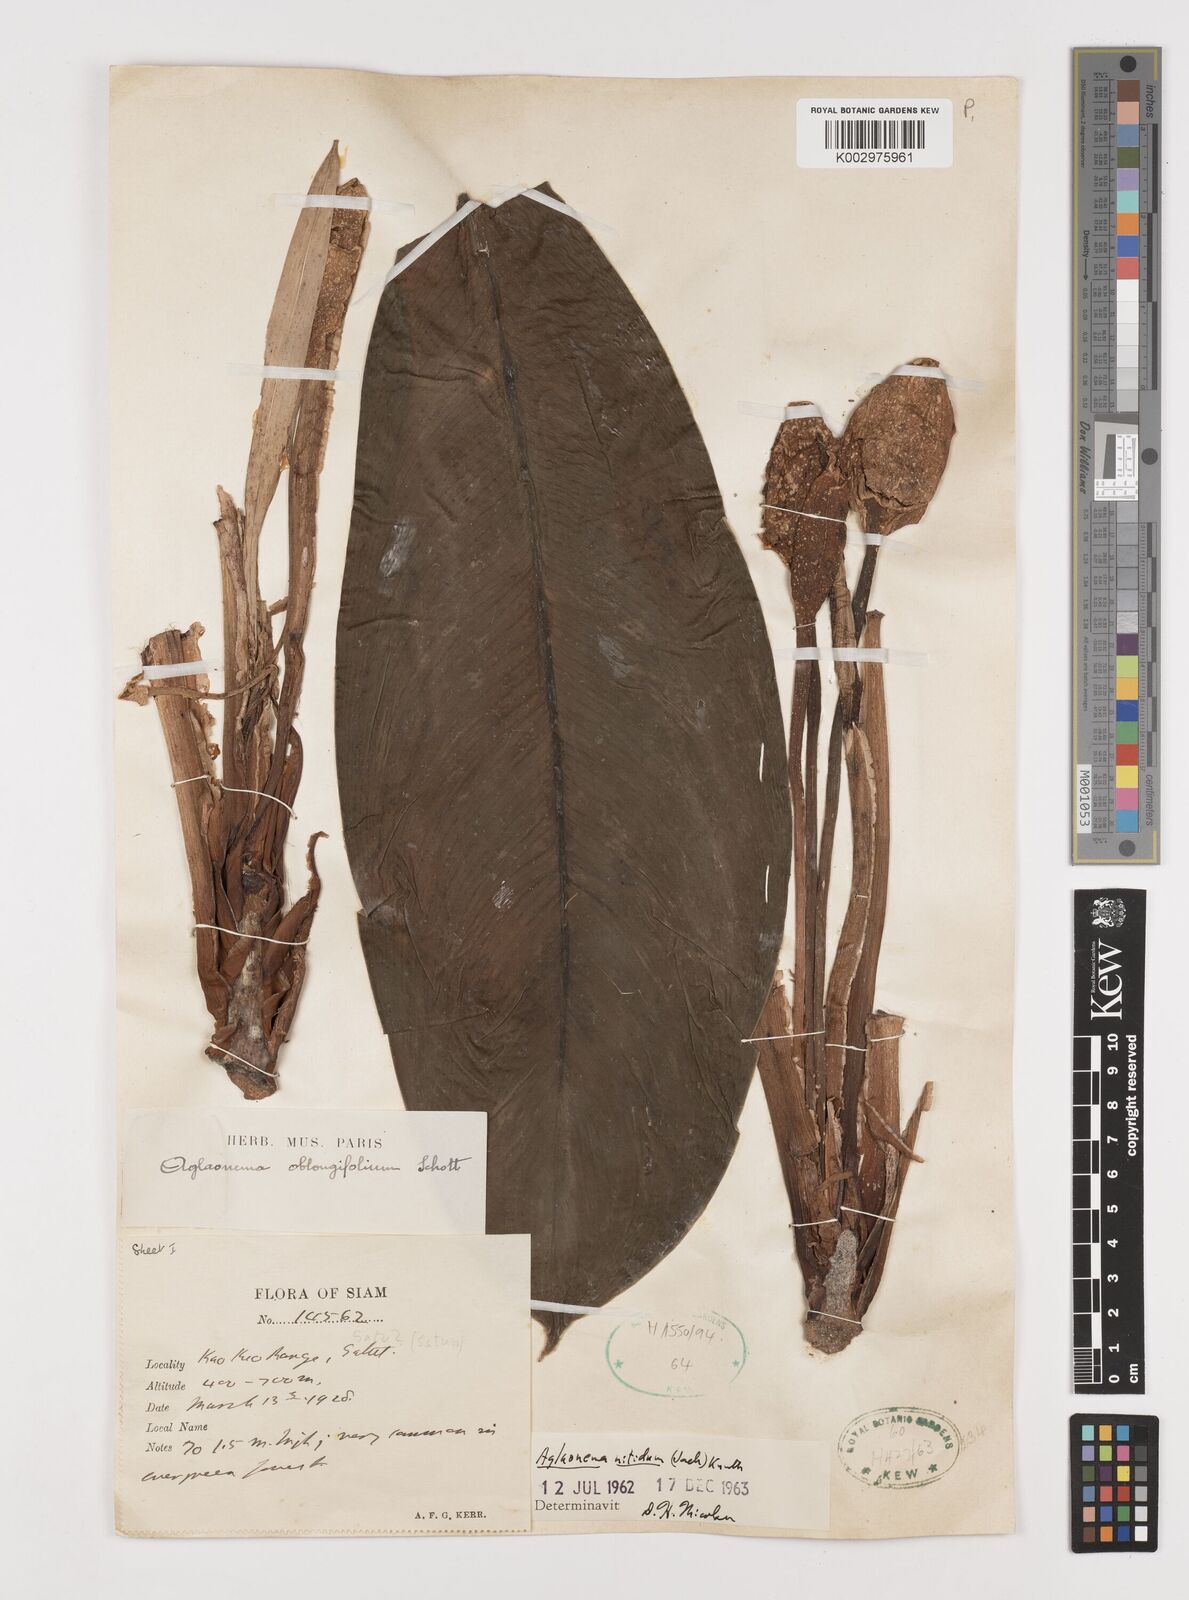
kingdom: Plantae
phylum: Tracheophyta
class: Liliopsida
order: Alismatales
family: Araceae
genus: Aglaonema
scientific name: Aglaonema nitidum
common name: Aglaonema aroid
